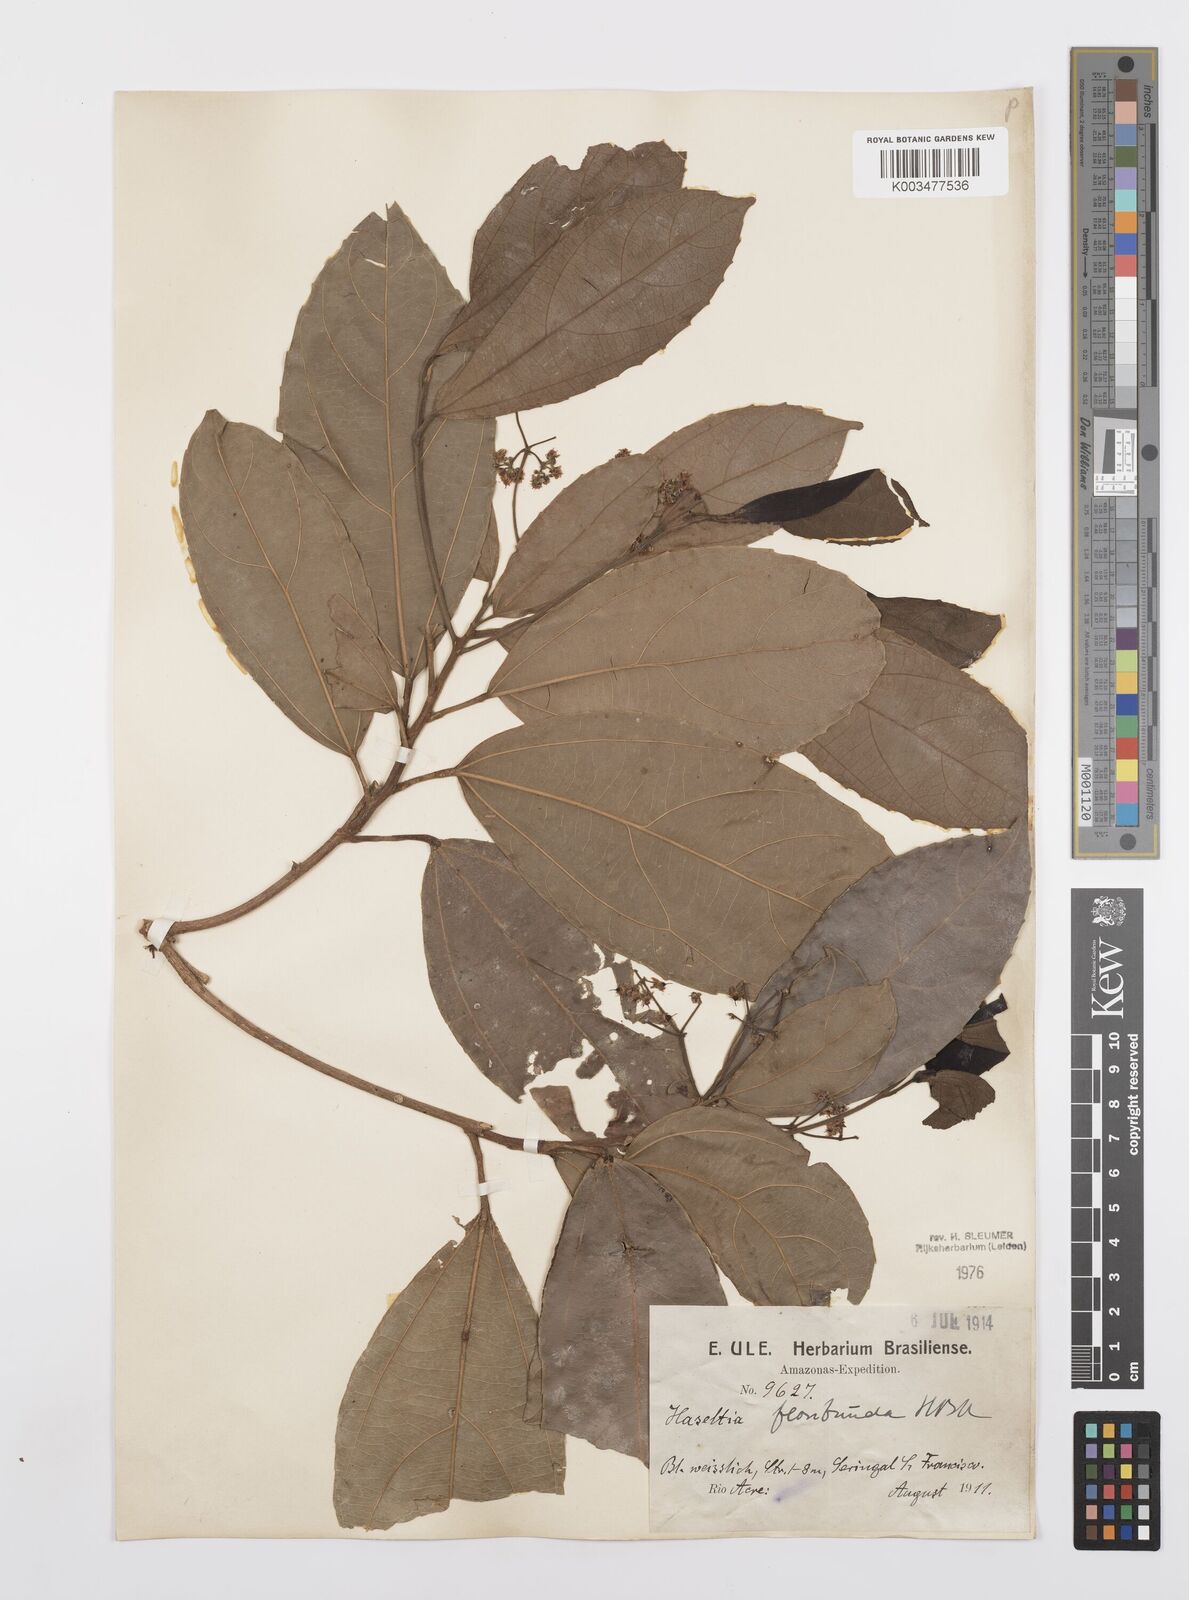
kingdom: Plantae
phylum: Tracheophyta
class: Magnoliopsida
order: Malpighiales
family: Salicaceae
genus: Hasseltia
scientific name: Hasseltia floribunda
